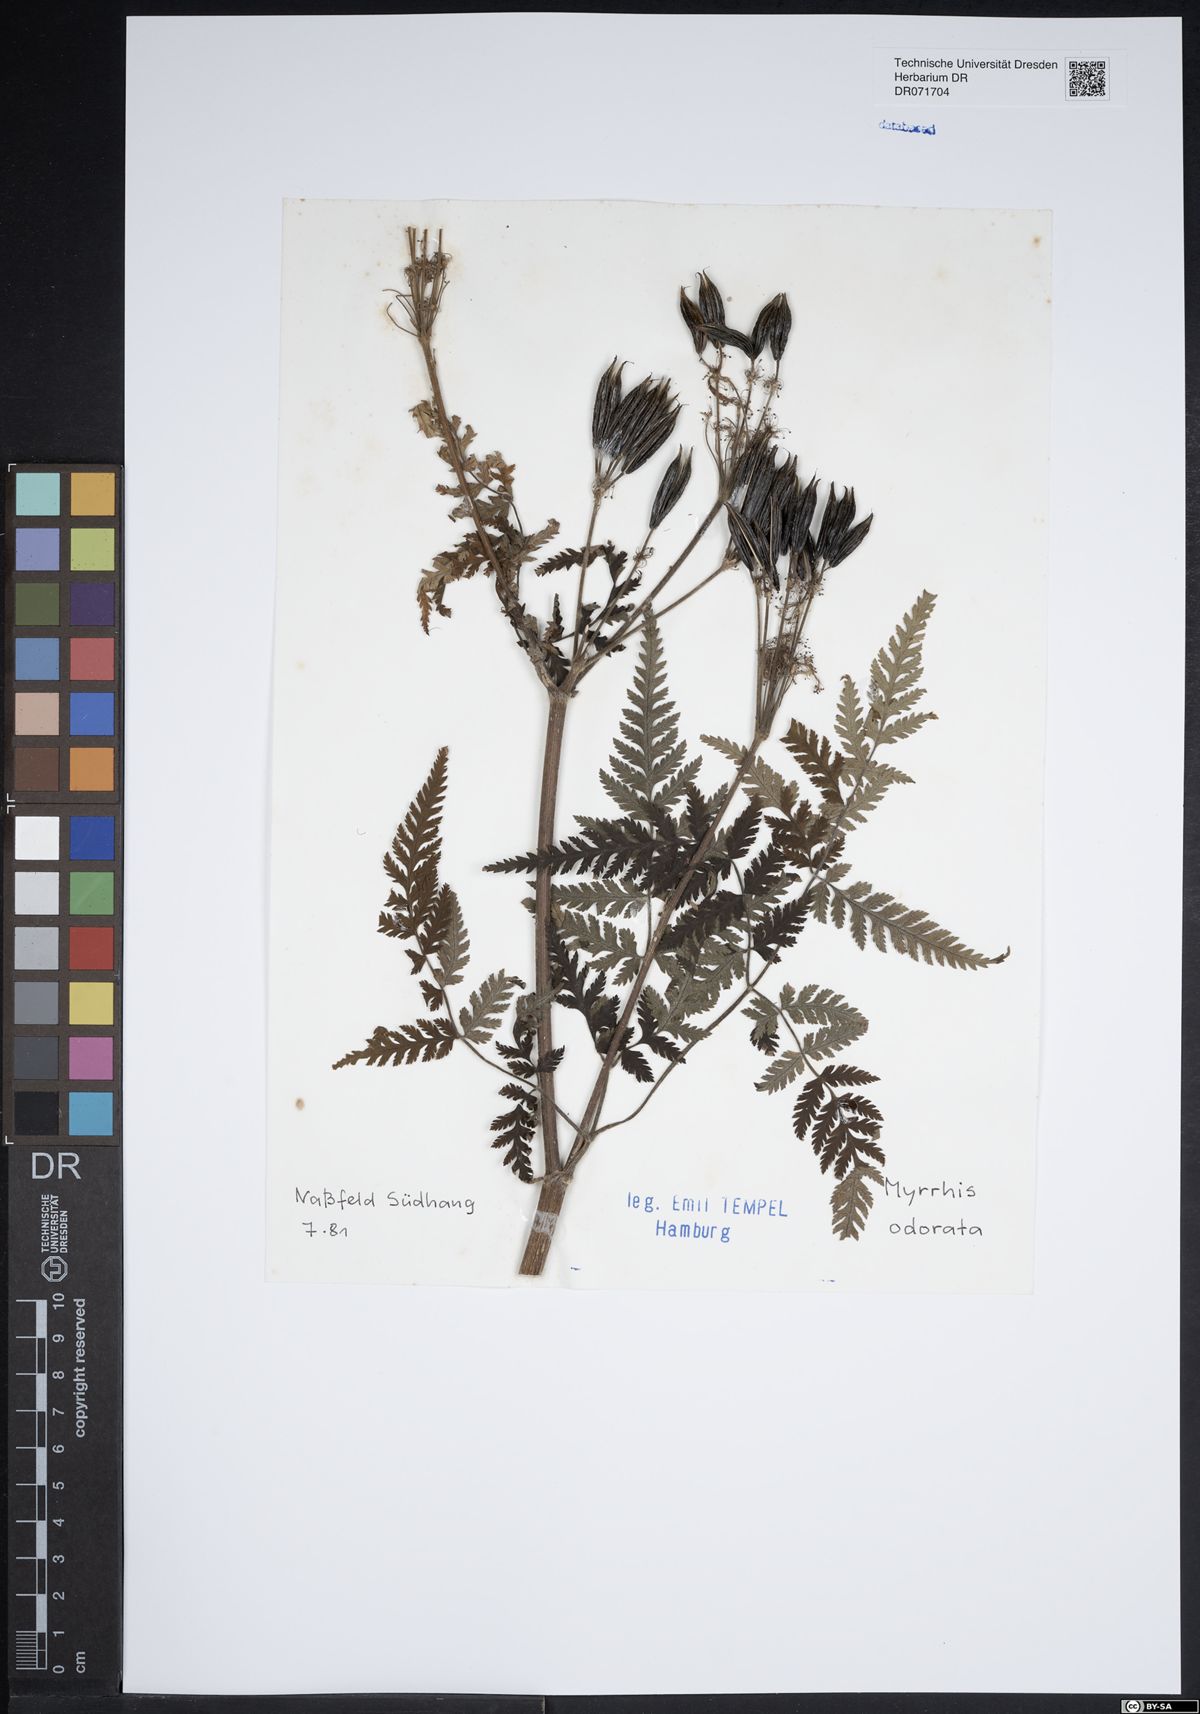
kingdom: Plantae
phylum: Tracheophyta
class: Magnoliopsida
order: Apiales
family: Apiaceae
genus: Myrrhis
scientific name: Myrrhis odorata
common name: Sweet cicely
